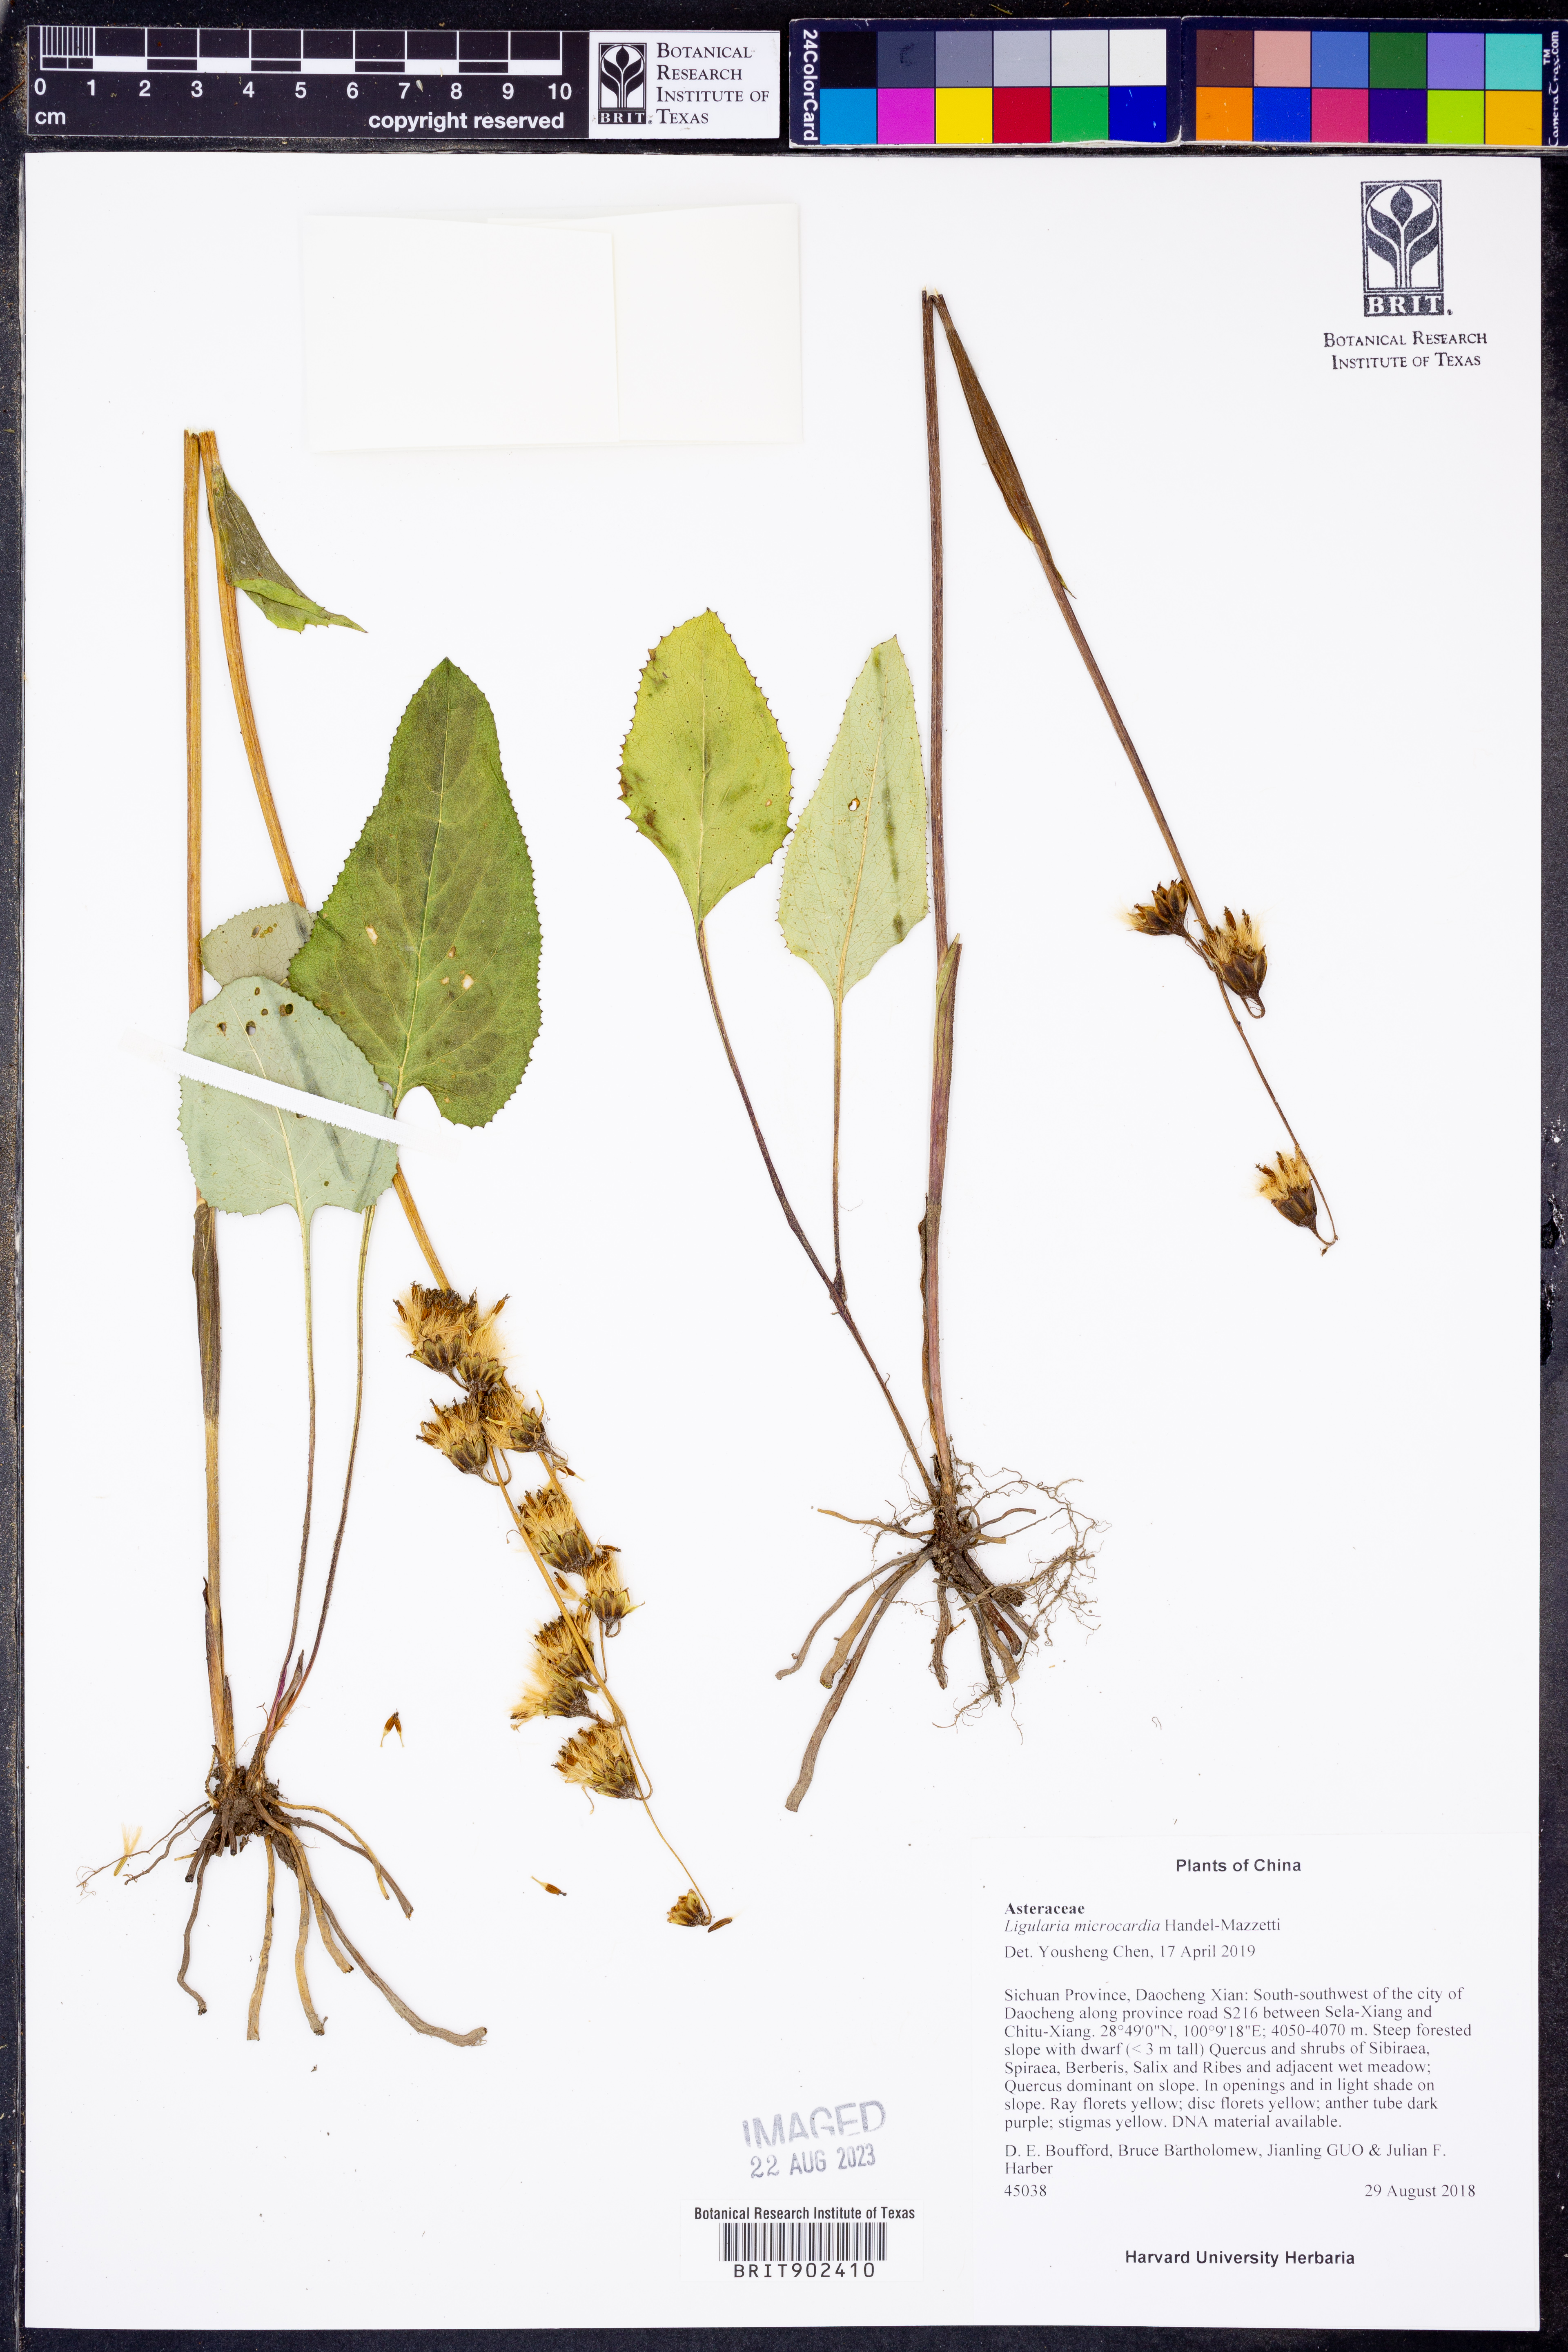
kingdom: Plantae
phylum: Tracheophyta
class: Magnoliopsida
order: Asterales
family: Asteraceae
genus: Ligularia
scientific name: Ligularia
